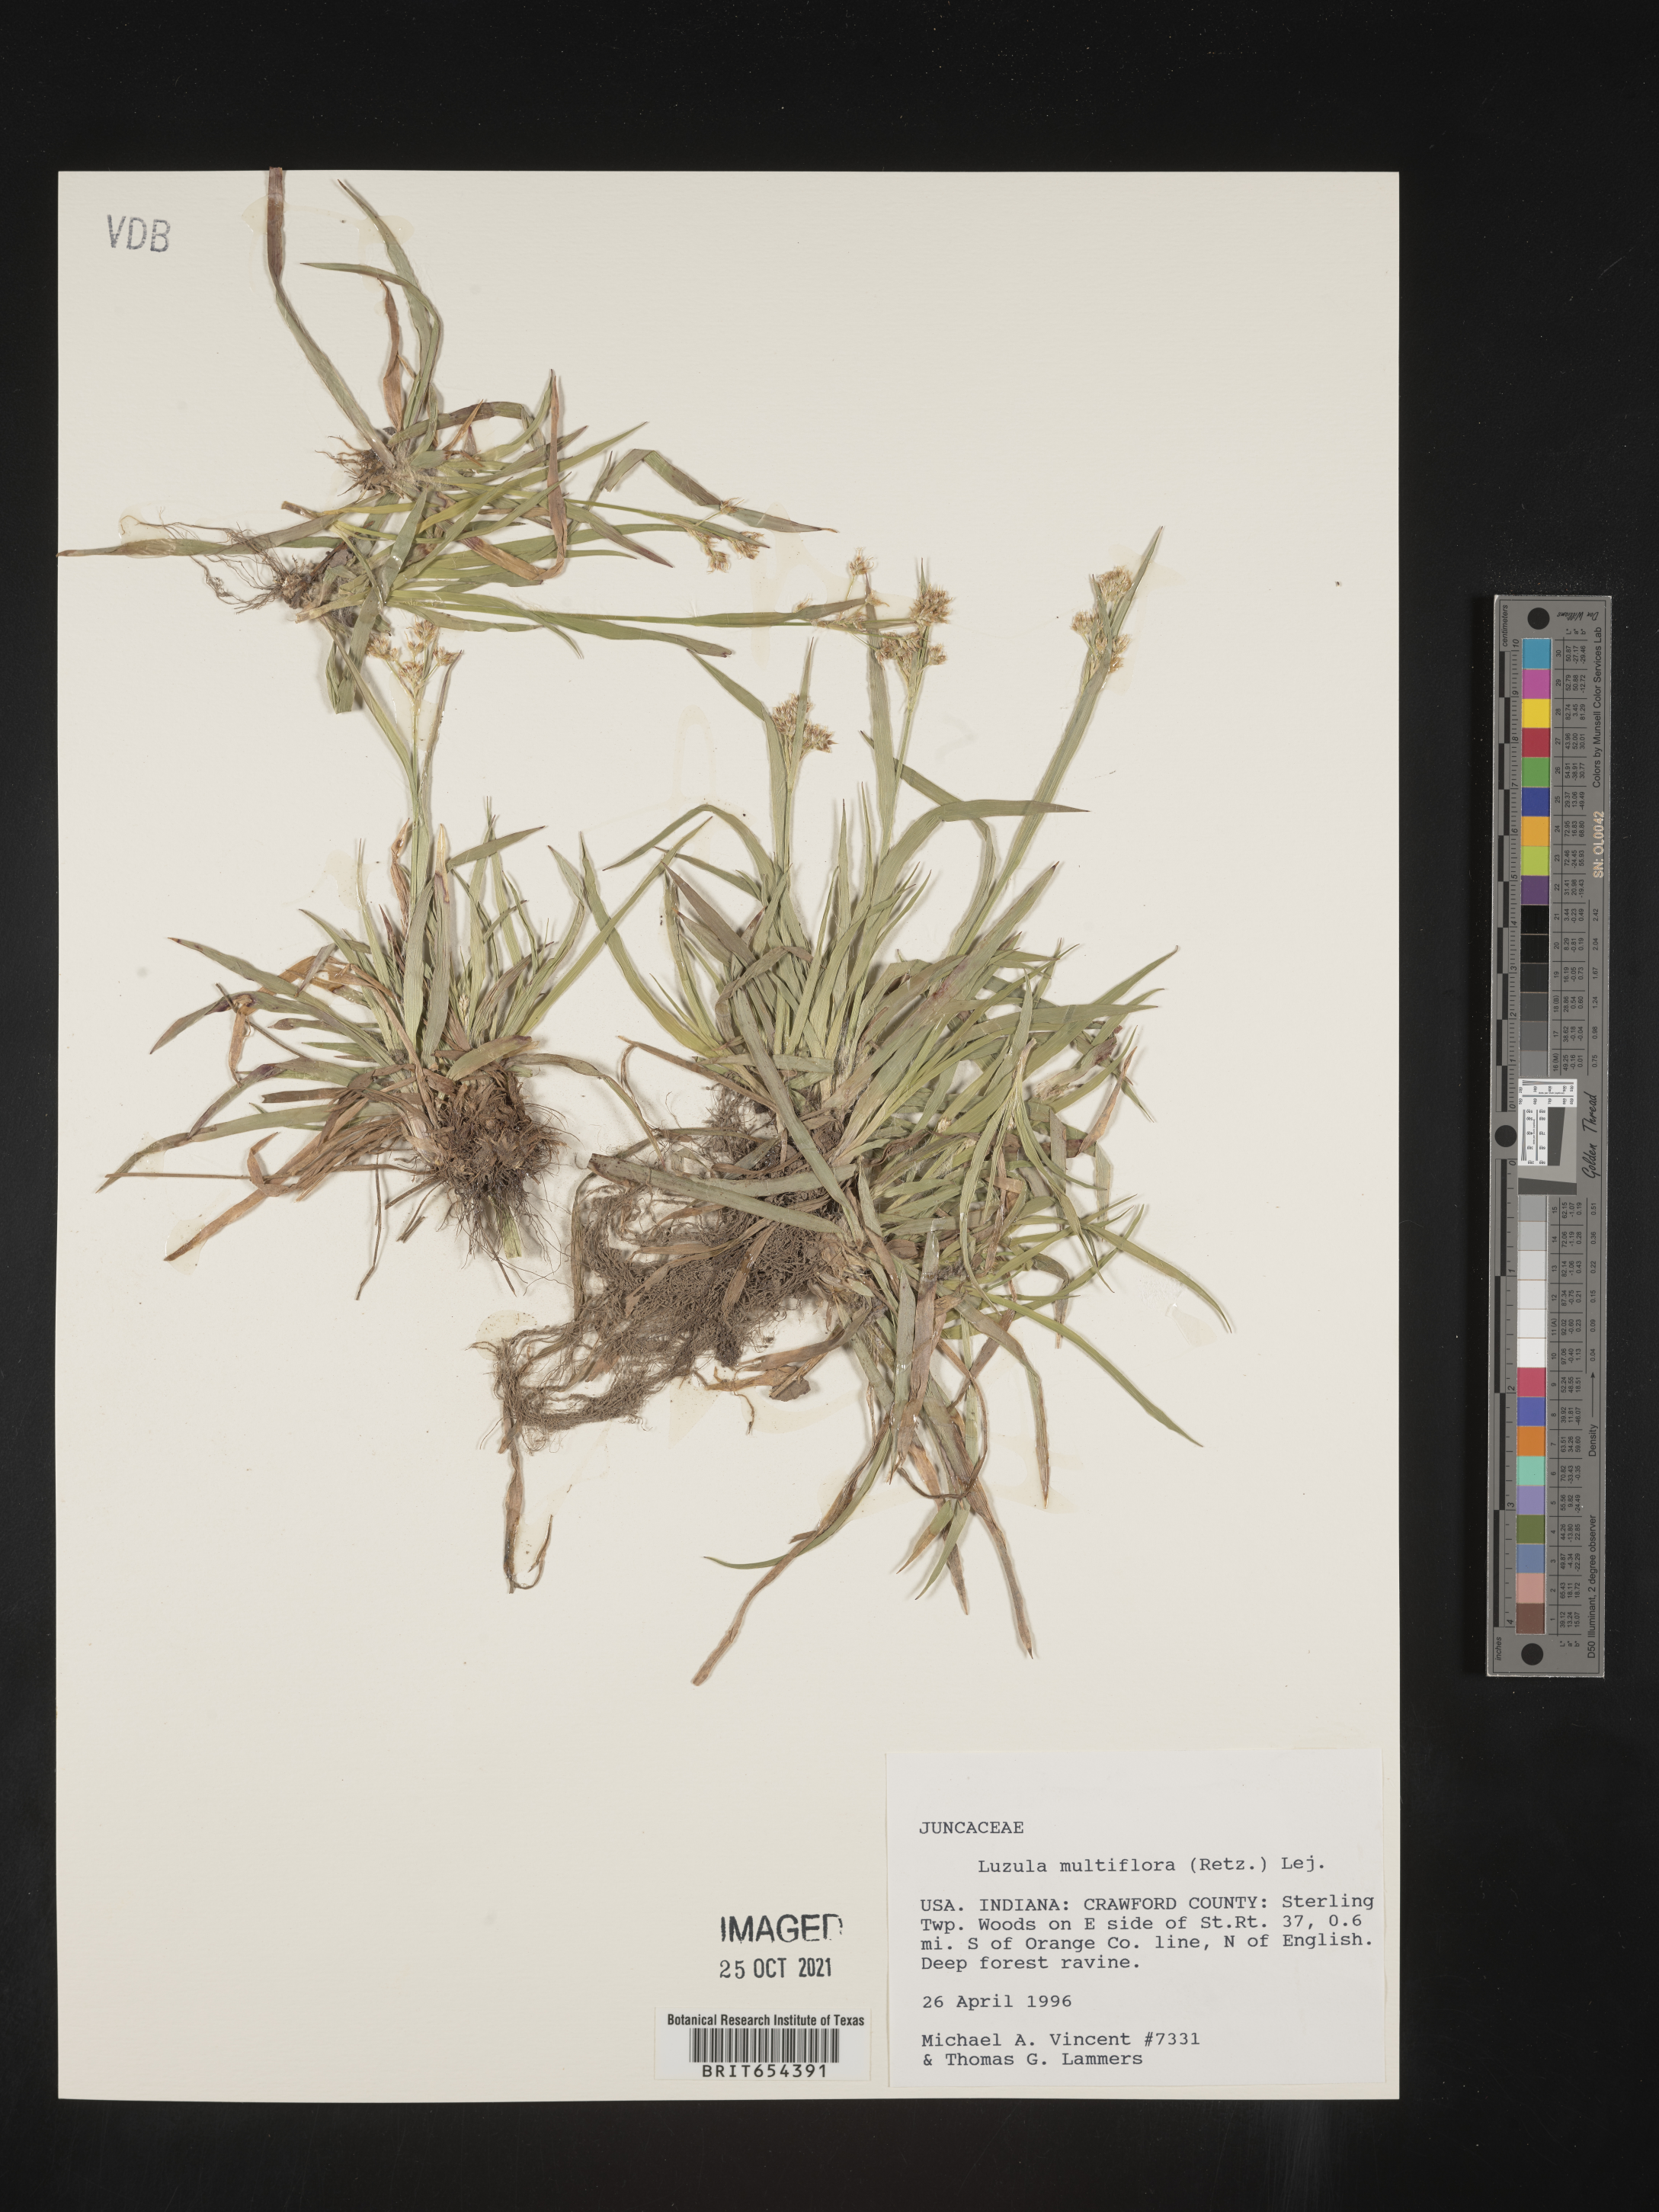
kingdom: Plantae
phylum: Tracheophyta
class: Liliopsida
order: Poales
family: Juncaceae
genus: Luzula
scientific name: Luzula multiflora
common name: Heath wood-rush
